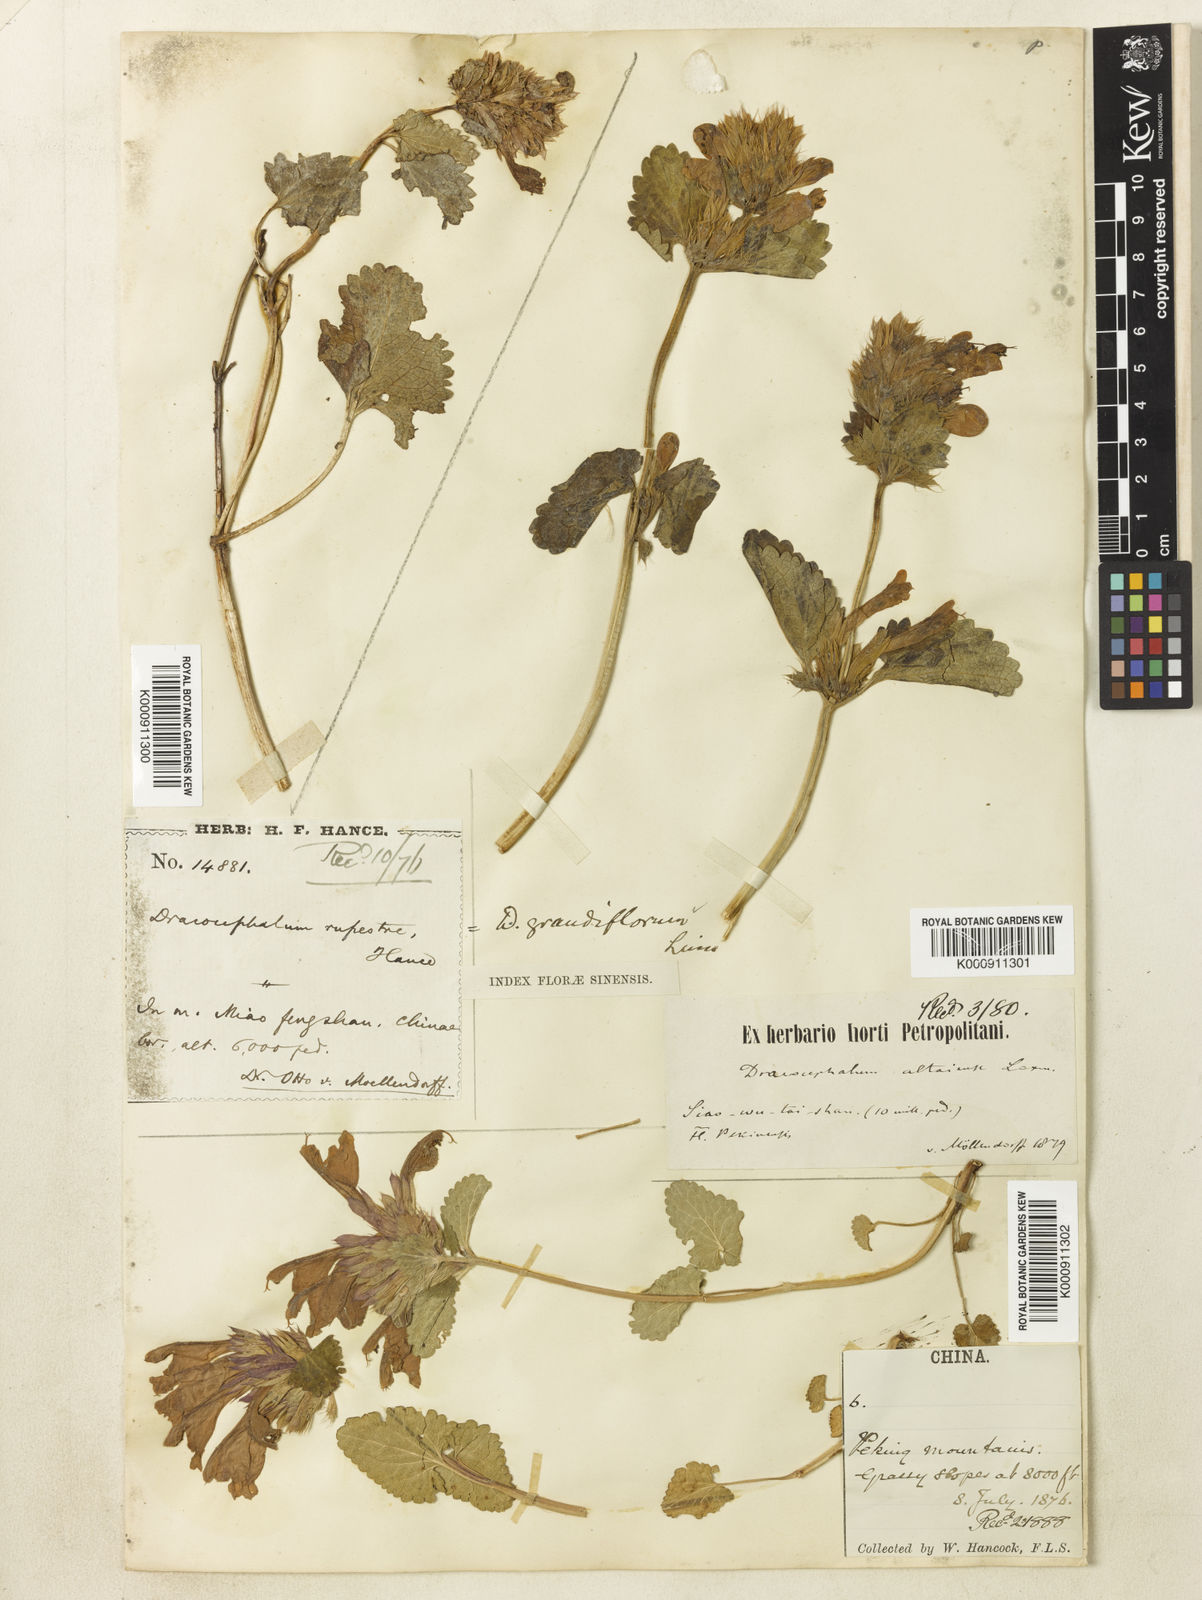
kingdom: Plantae
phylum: Tracheophyta
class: Magnoliopsida
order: Lamiales
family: Lamiaceae
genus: Dracocephalum
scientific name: Dracocephalum rupestre
